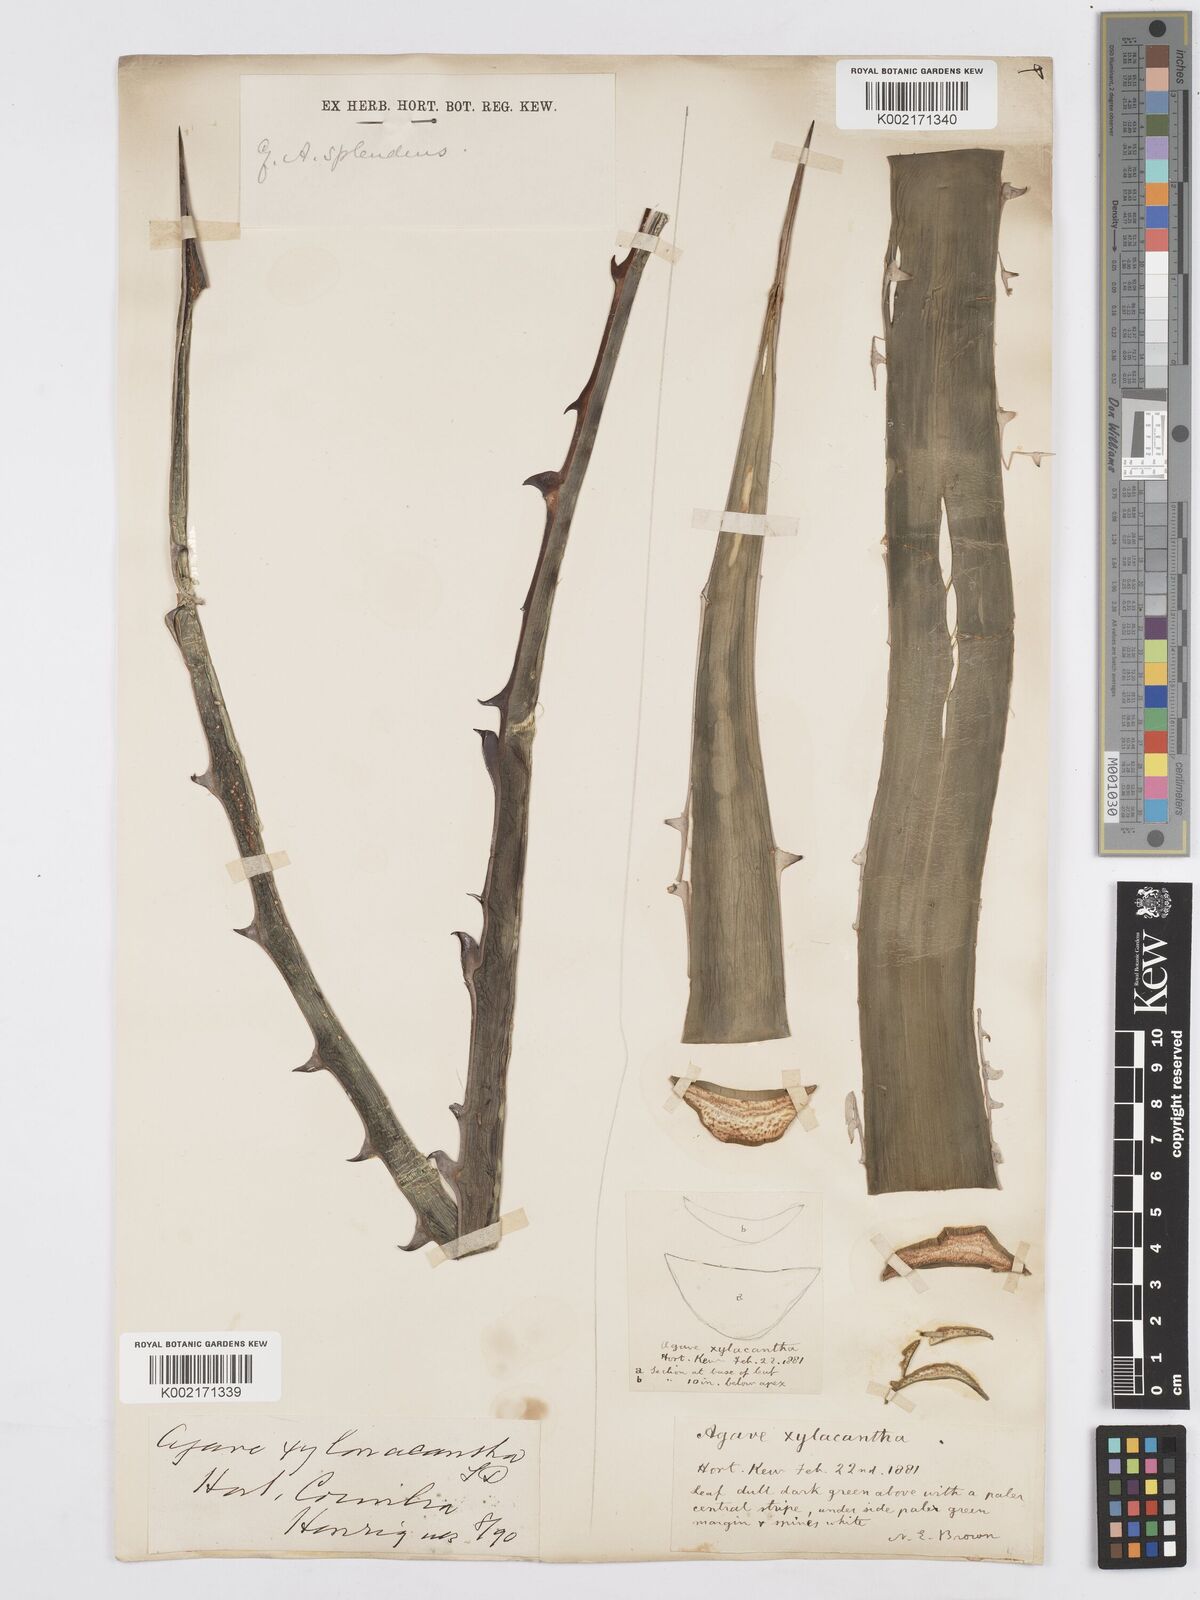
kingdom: Plantae
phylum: Tracheophyta
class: Liliopsida
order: Asparagales
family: Asparagaceae
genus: Agave
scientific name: Agave xylonacantha
